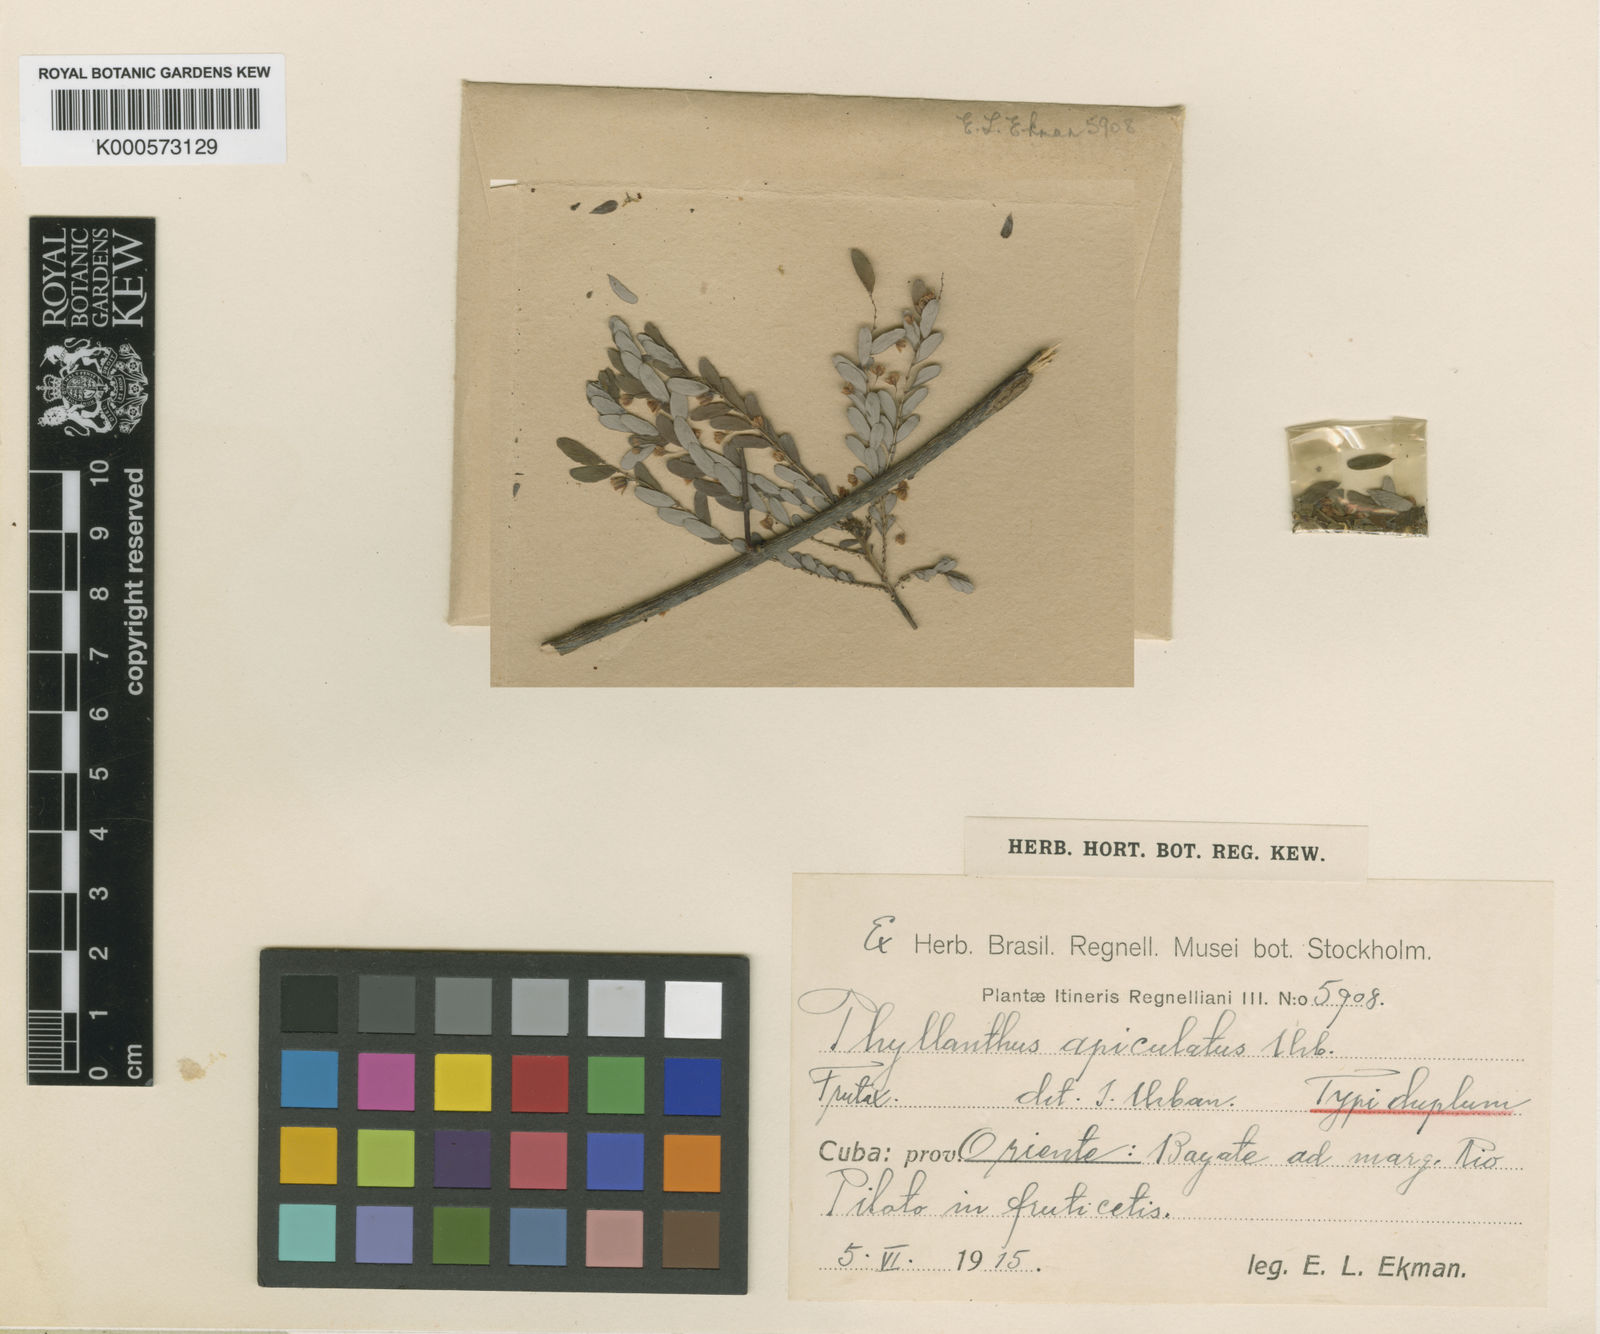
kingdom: Plantae
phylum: Tracheophyta
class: Magnoliopsida
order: Malpighiales
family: Phyllanthaceae
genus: Phyllanthus
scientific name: Phyllanthus chamaecristoides
